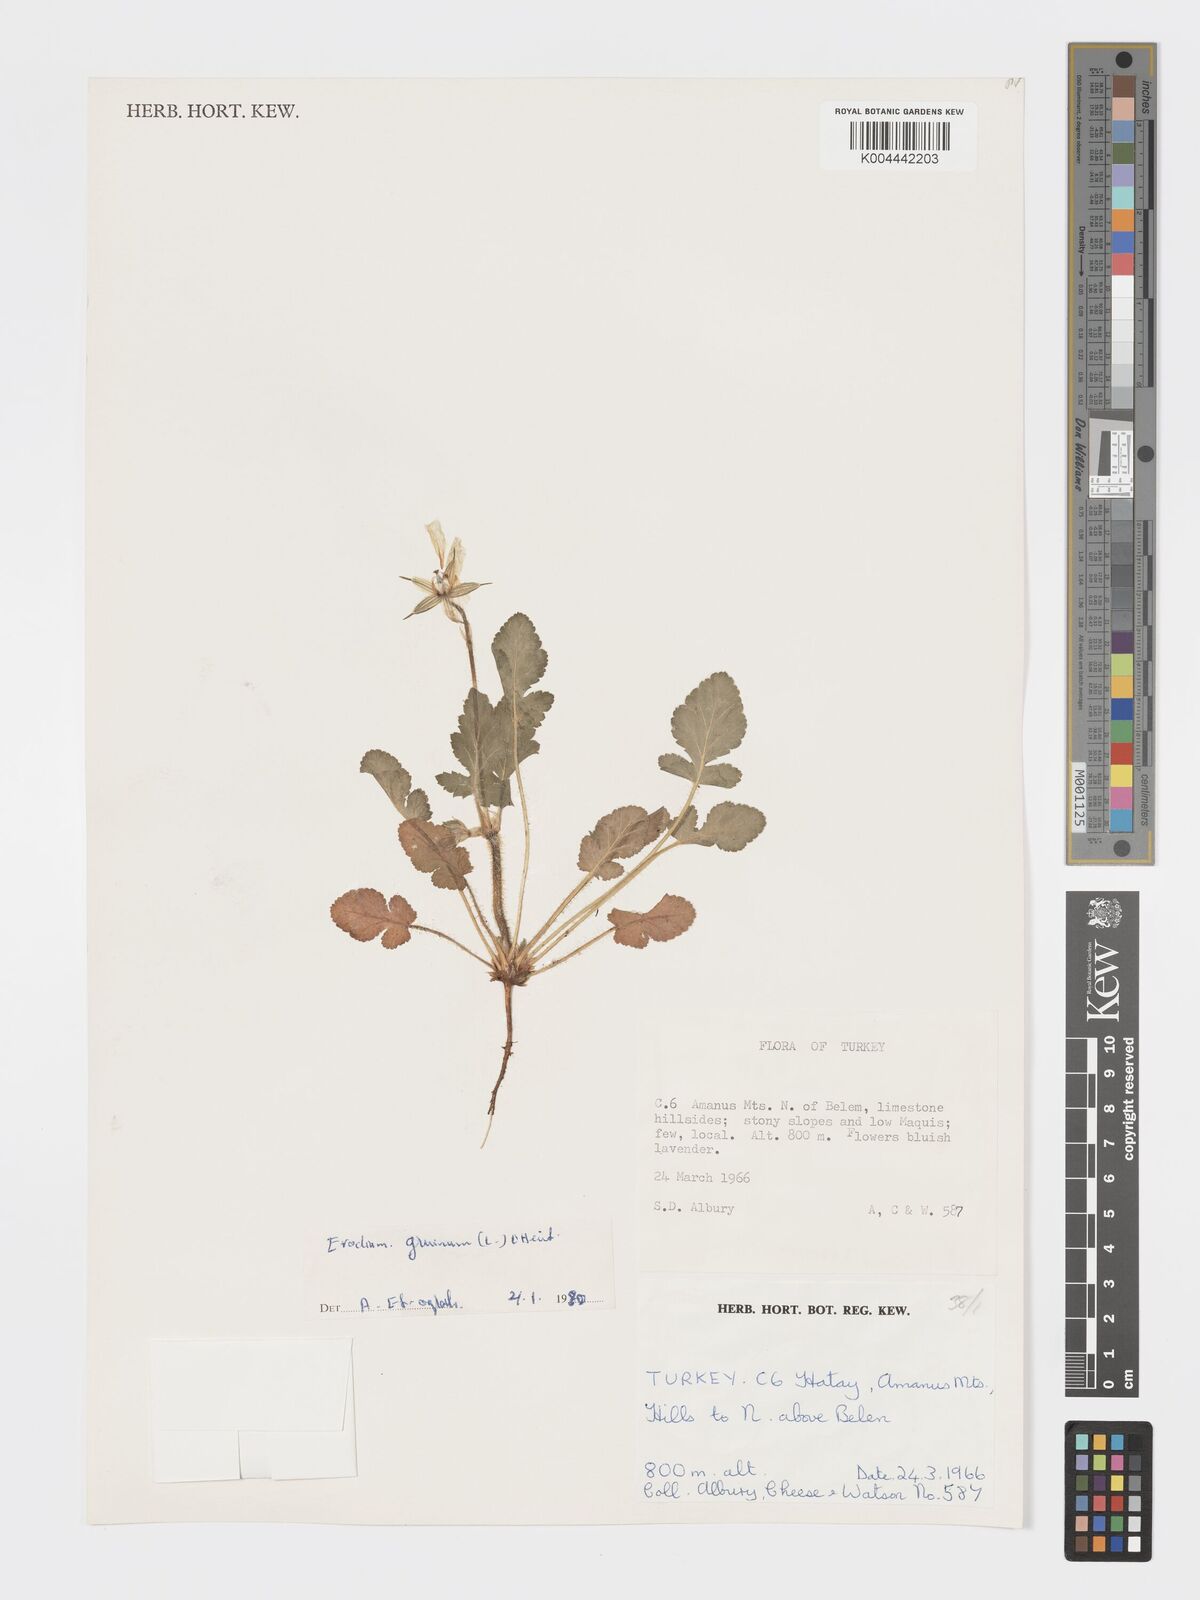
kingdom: Plantae
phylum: Tracheophyta
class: Magnoliopsida
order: Geraniales
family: Geraniaceae
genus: Erodium
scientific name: Erodium gruinum
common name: Iranian stork's bill
